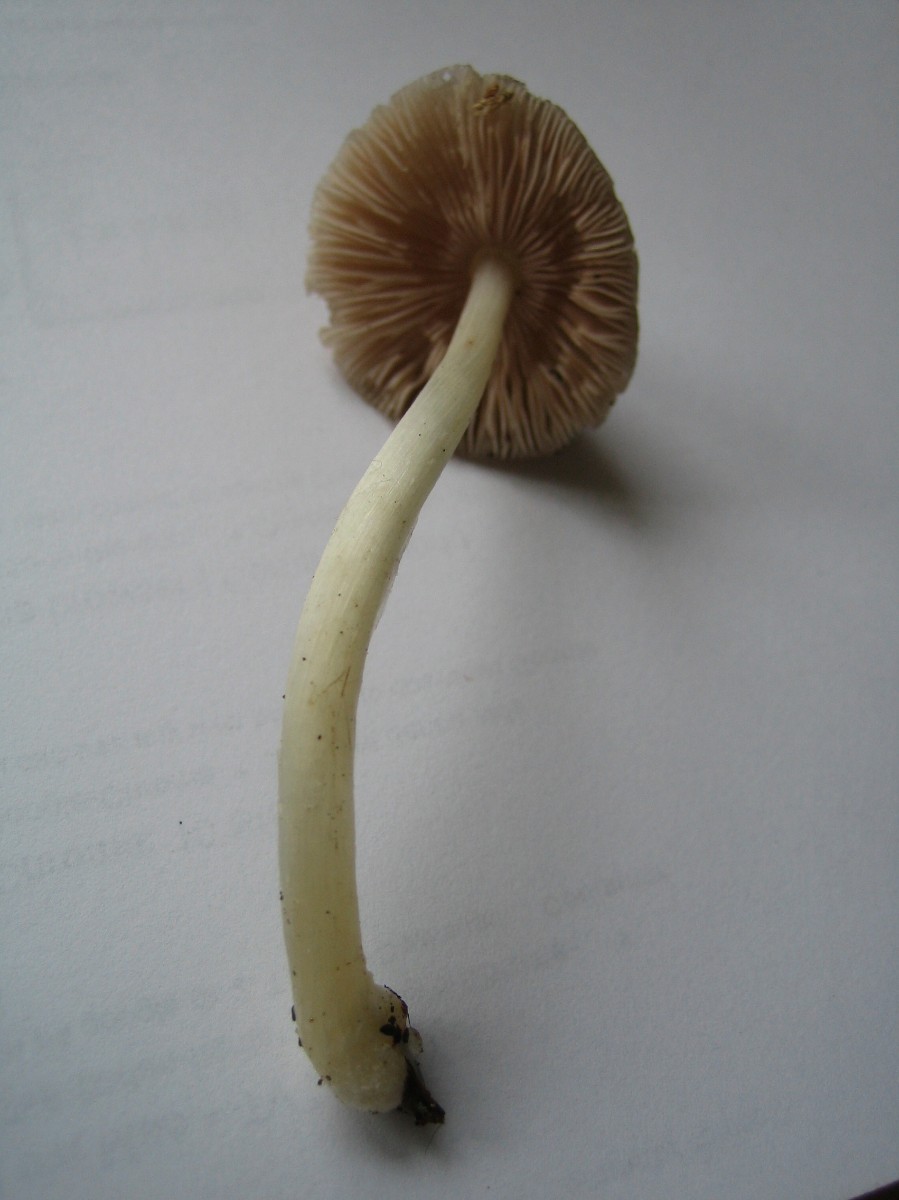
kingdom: Fungi
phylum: Basidiomycota
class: Agaricomycetes
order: Agaricales
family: Pluteaceae
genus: Pluteus
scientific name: Pluteus
